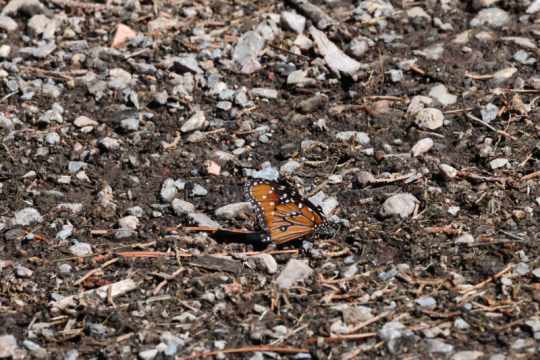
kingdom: Animalia
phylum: Arthropoda
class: Insecta
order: Lepidoptera
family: Nymphalidae
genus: Danaus
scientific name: Danaus gilippus
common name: Queen
